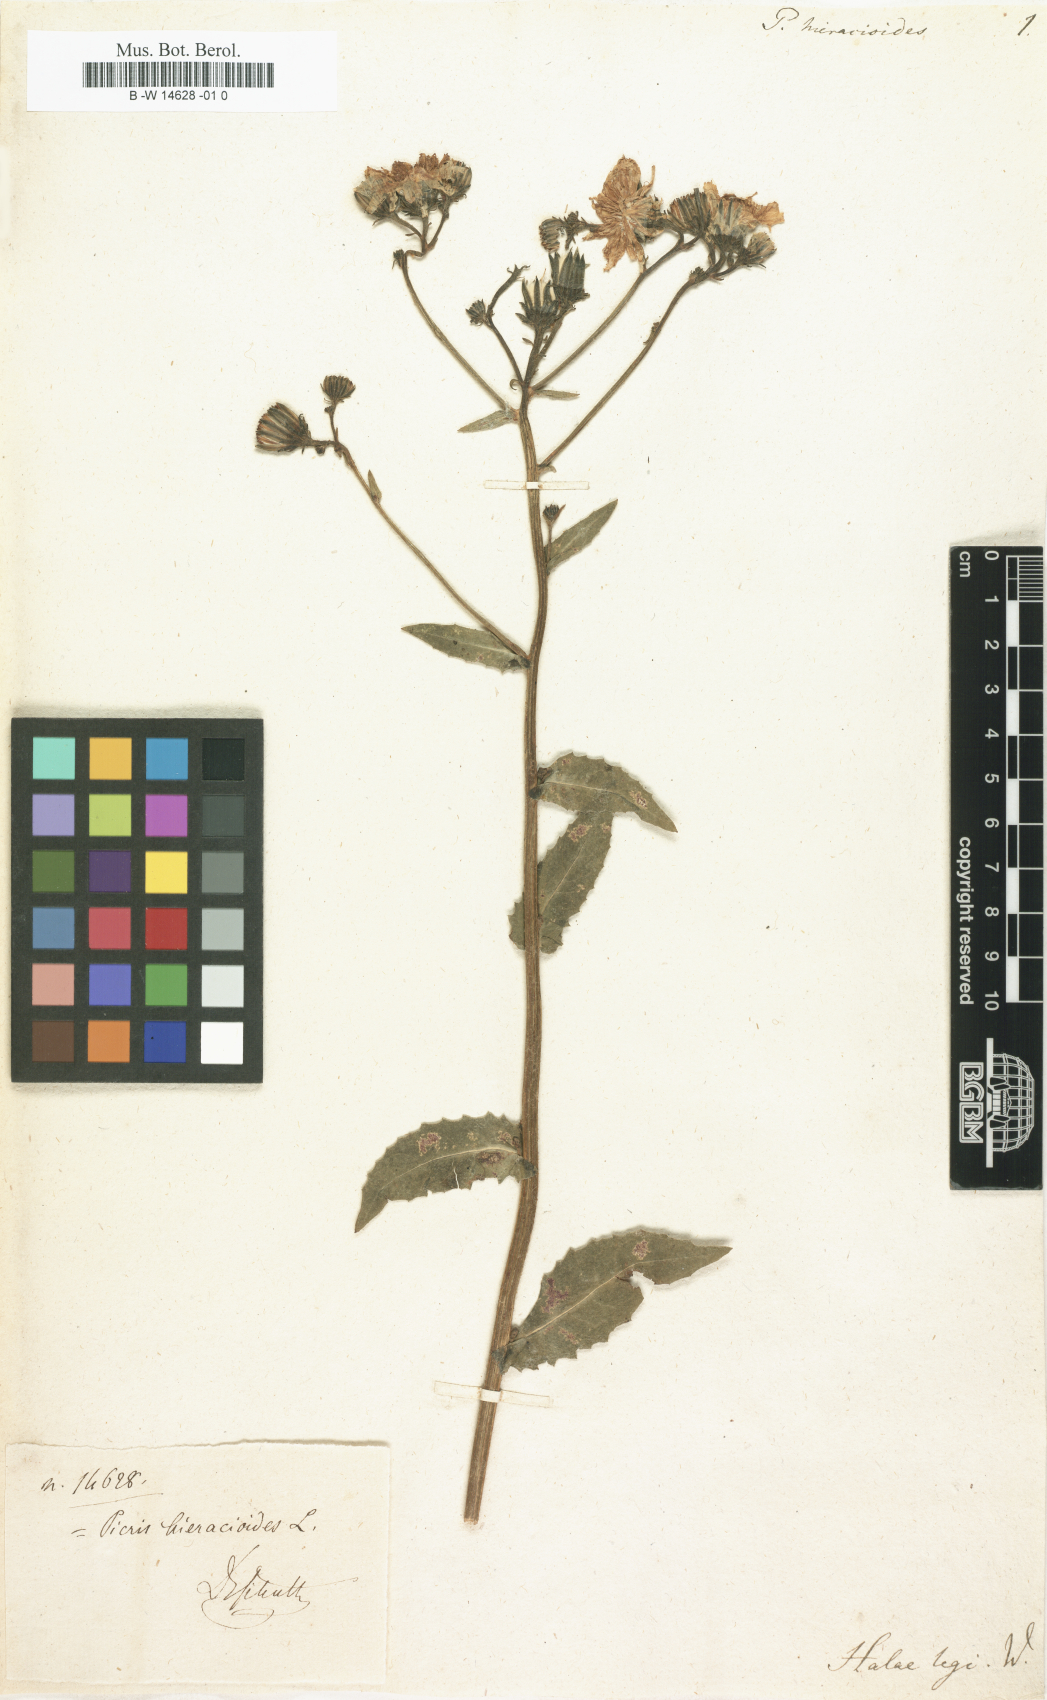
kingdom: Plantae
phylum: Tracheophyta
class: Magnoliopsida
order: Asterales
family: Asteraceae
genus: Picris
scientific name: Picris hieracioides
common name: Hawkweed oxtongue
